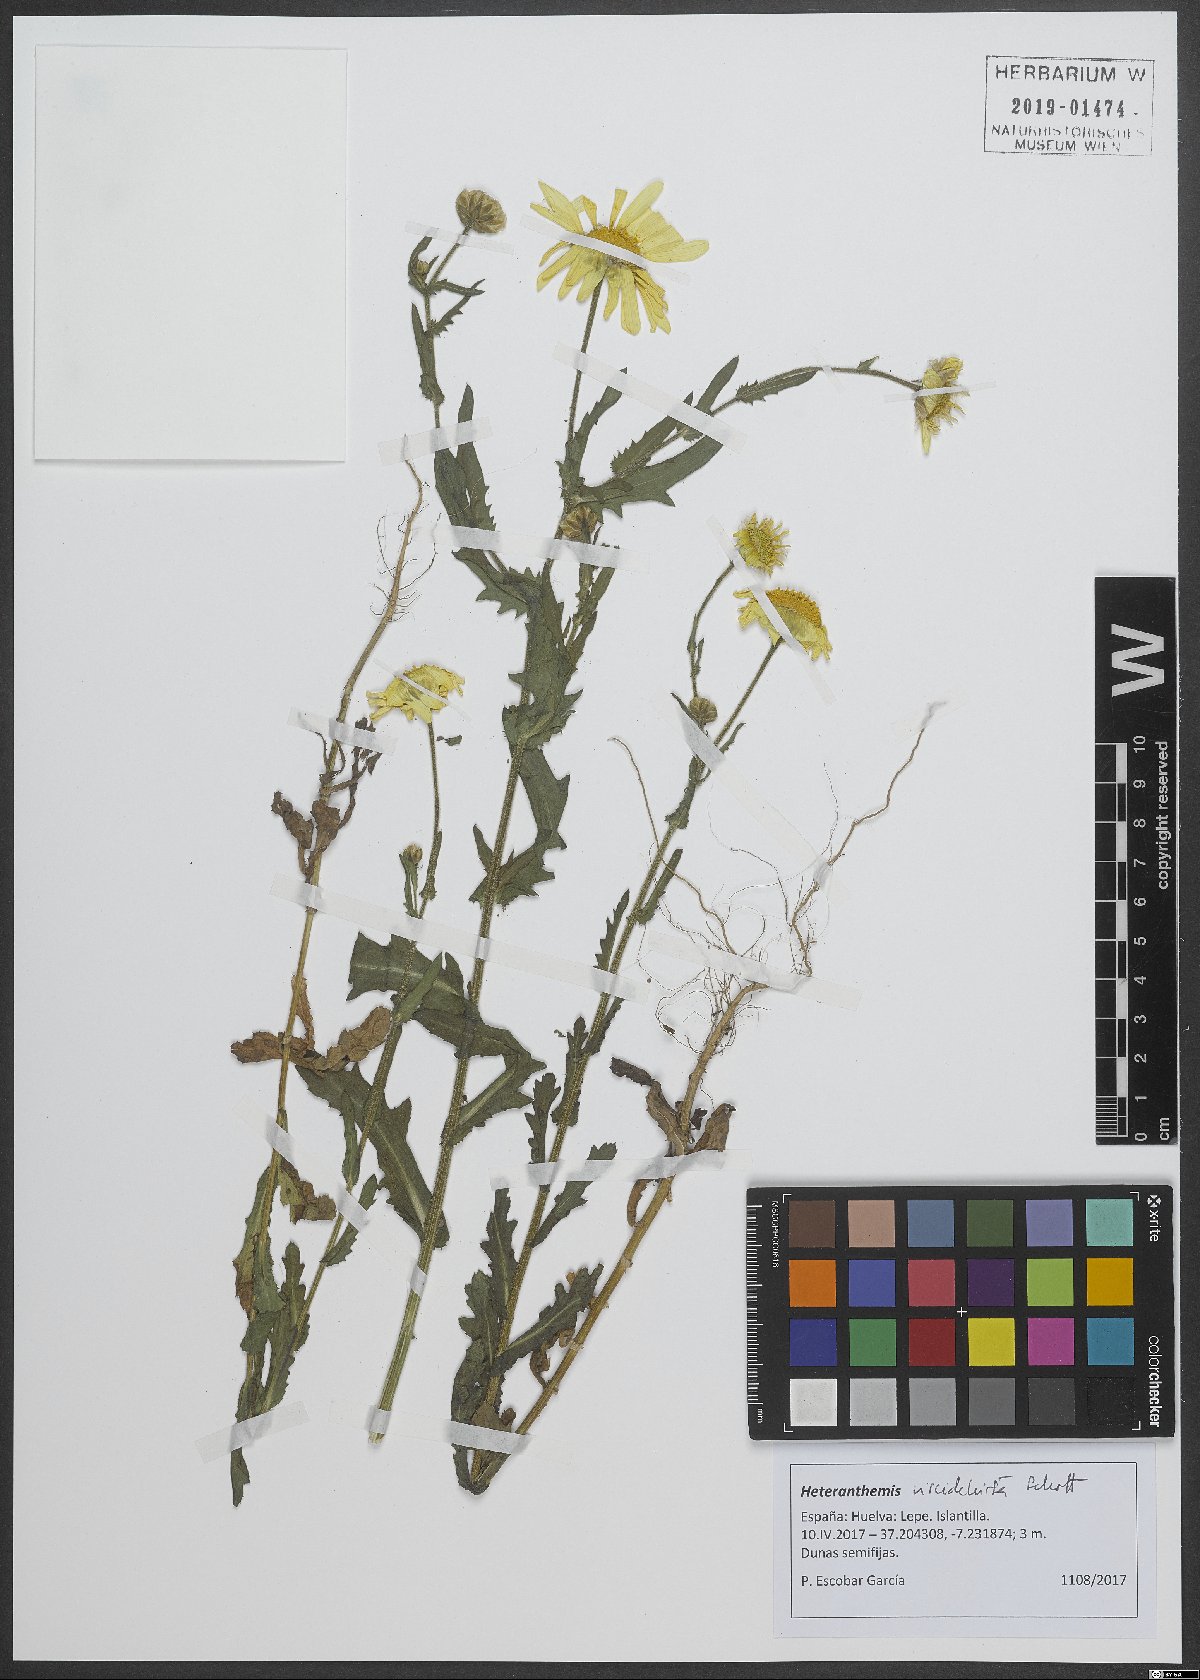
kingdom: Plantae
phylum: Tracheophyta
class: Magnoliopsida
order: Asterales
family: Asteraceae
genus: Heteranthemis
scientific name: Heteranthemis viscidehirta
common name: Sticky oxeye
